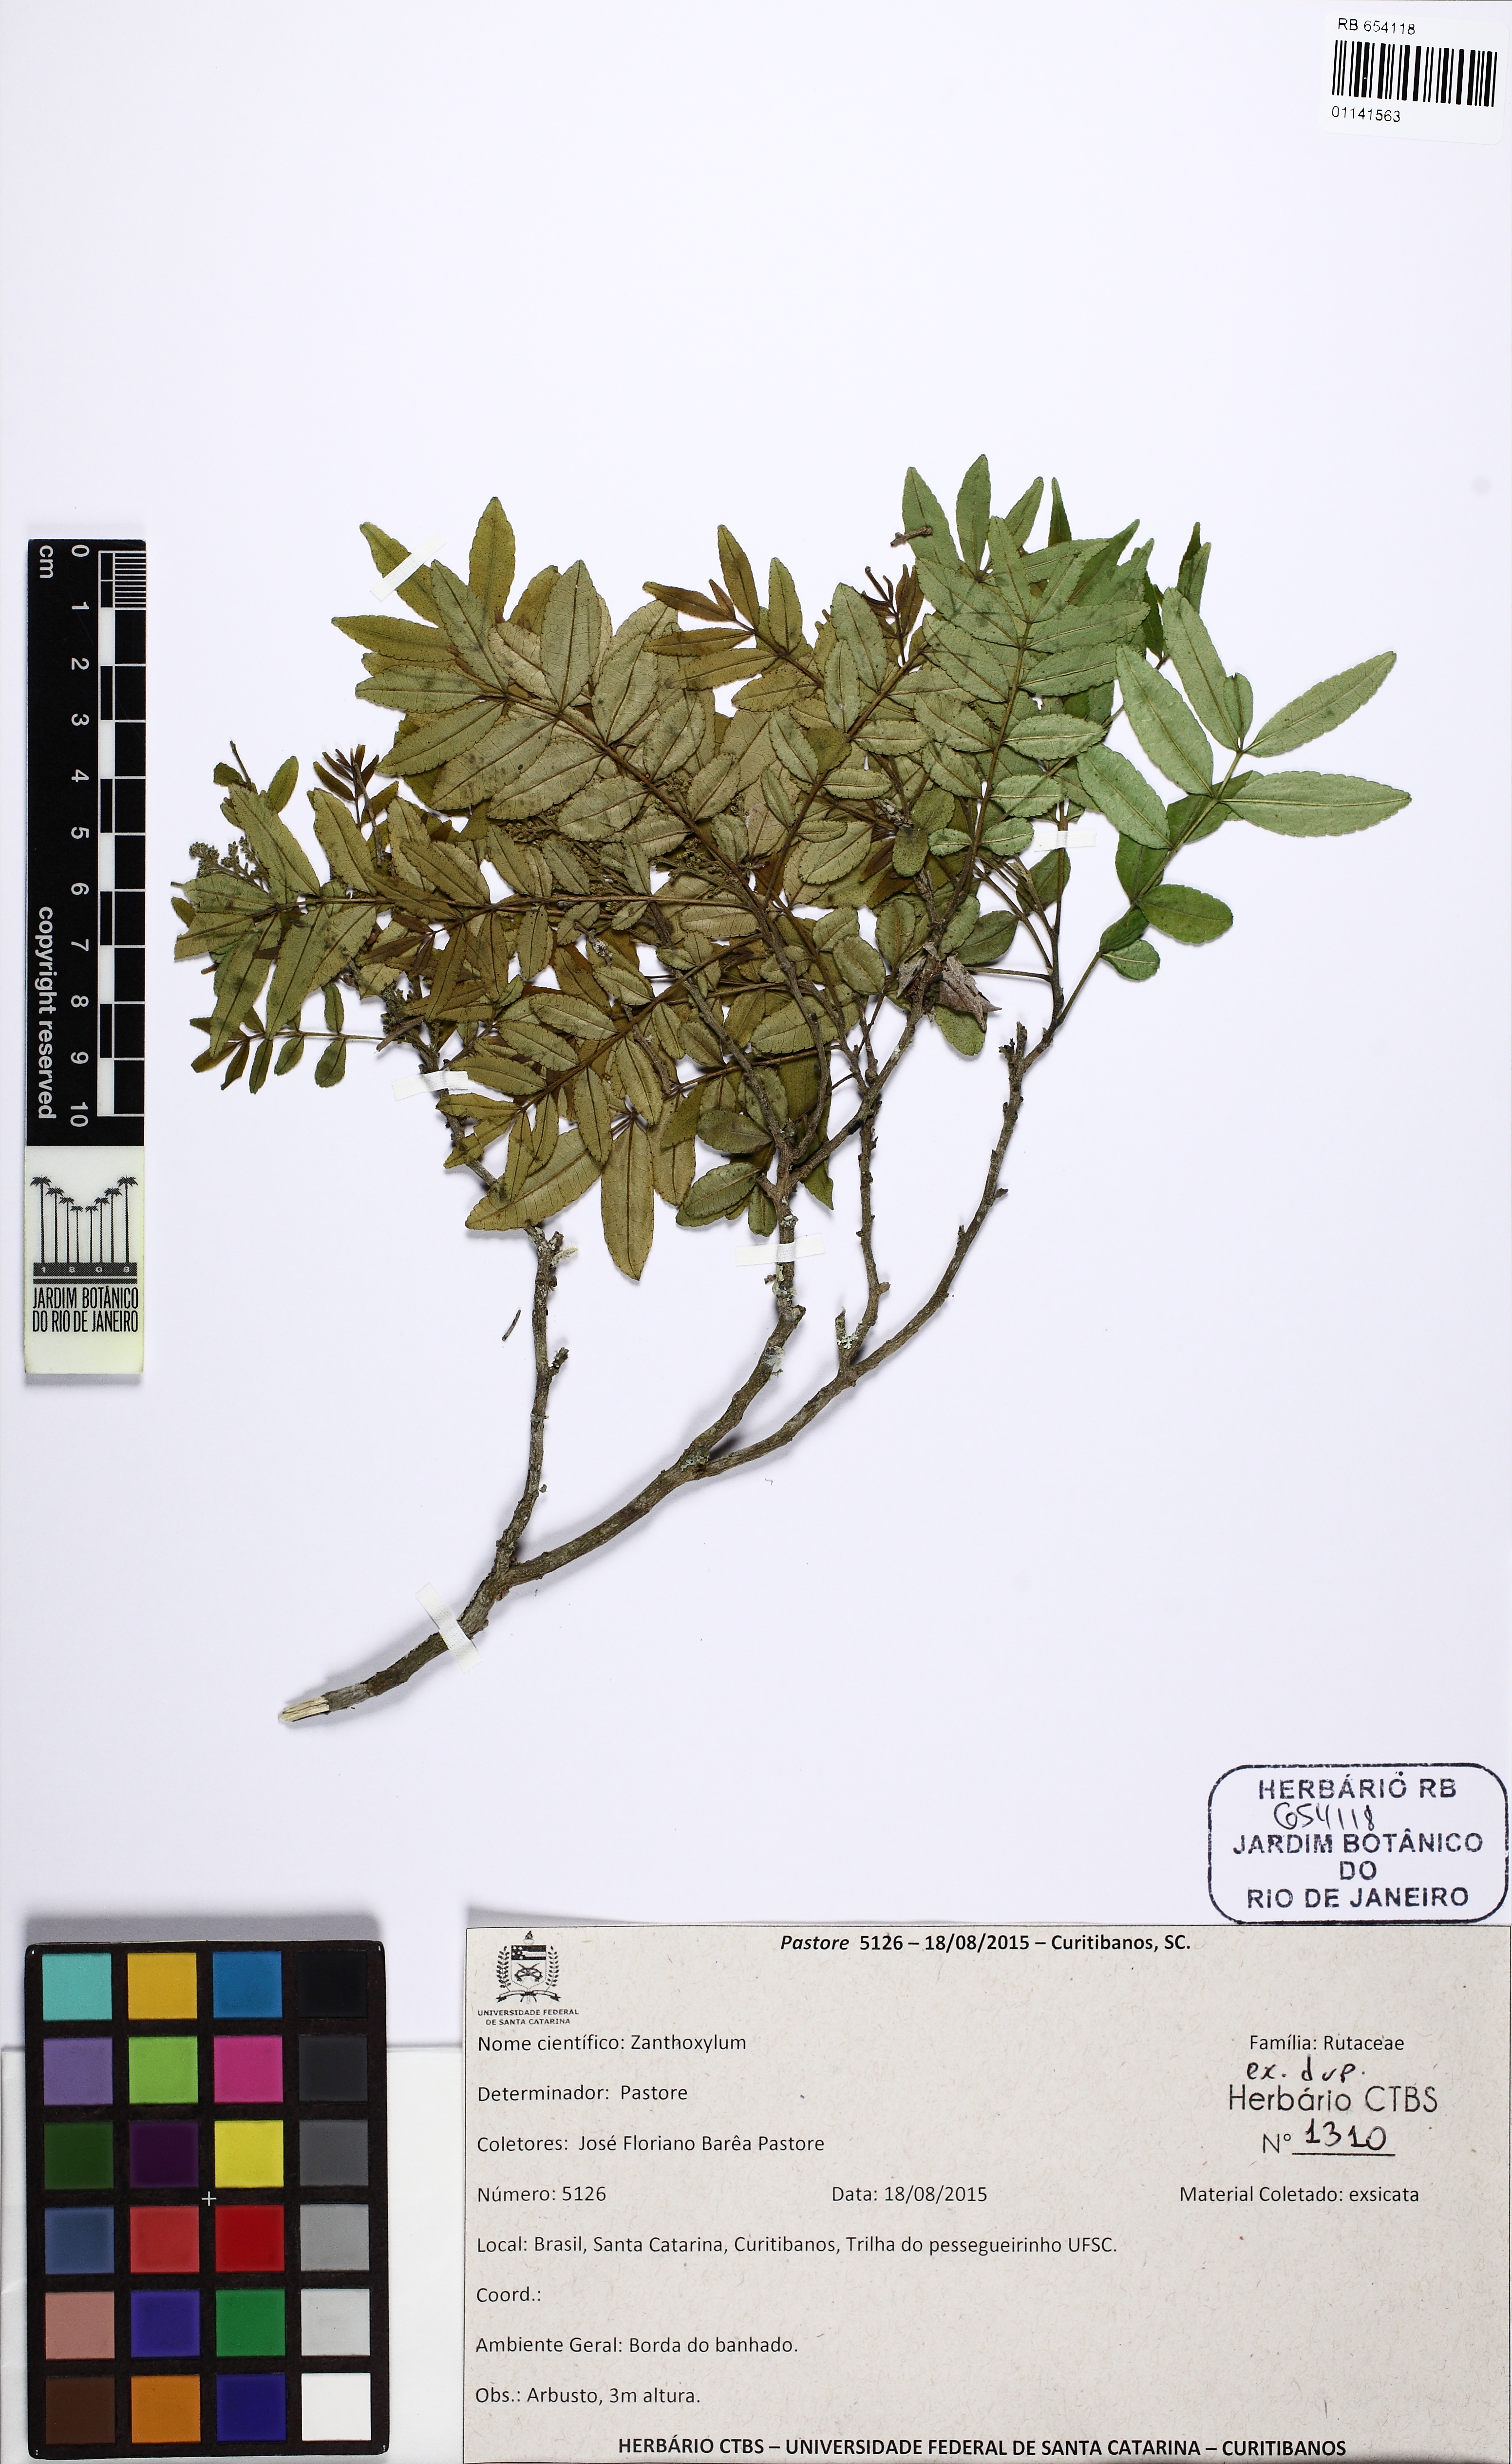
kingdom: Plantae
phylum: Tracheophyta
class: Magnoliopsida
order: Sapindales
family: Rutaceae
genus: Zanthoxylum
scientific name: Zanthoxylum rhoifolium
